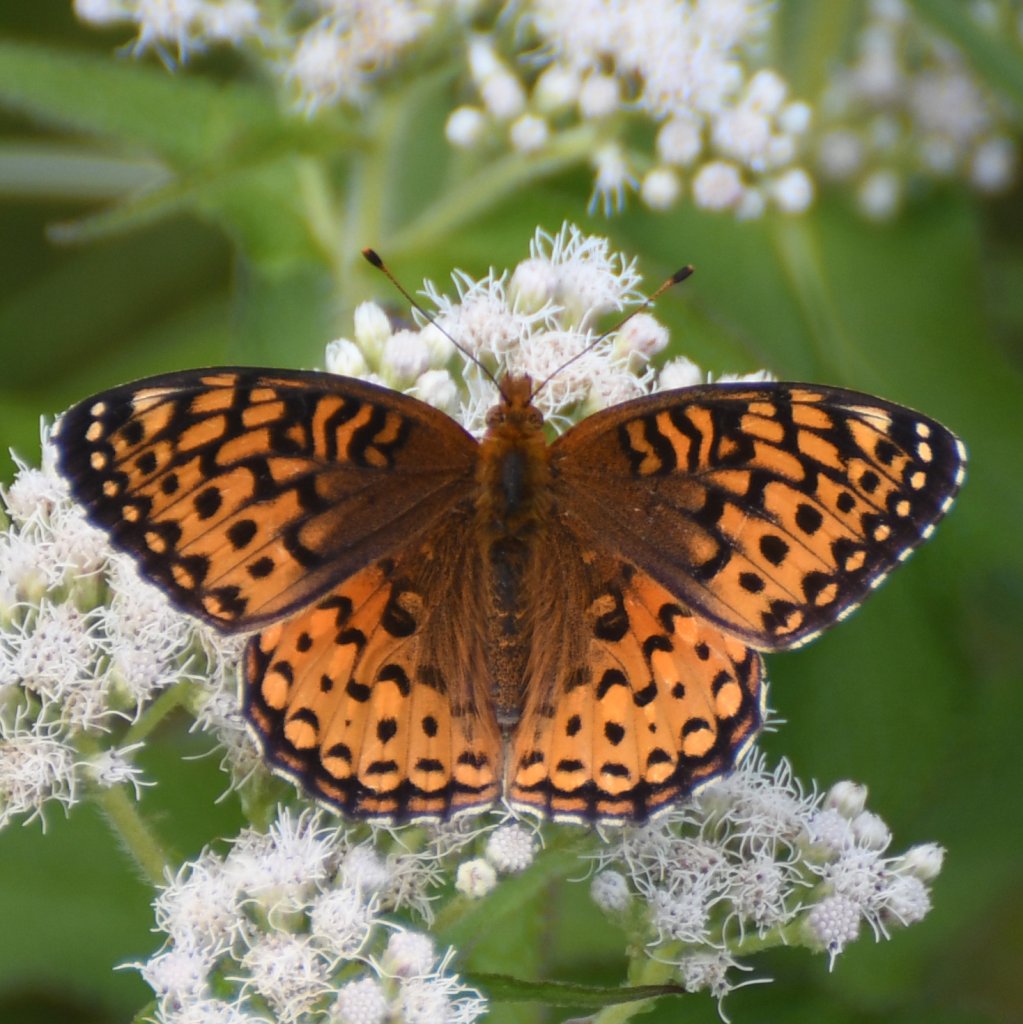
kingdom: Animalia
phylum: Arthropoda
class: Insecta
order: Lepidoptera
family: Nymphalidae
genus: Speyeria
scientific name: Speyeria aphrodite
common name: Aphrodite Fritillary
